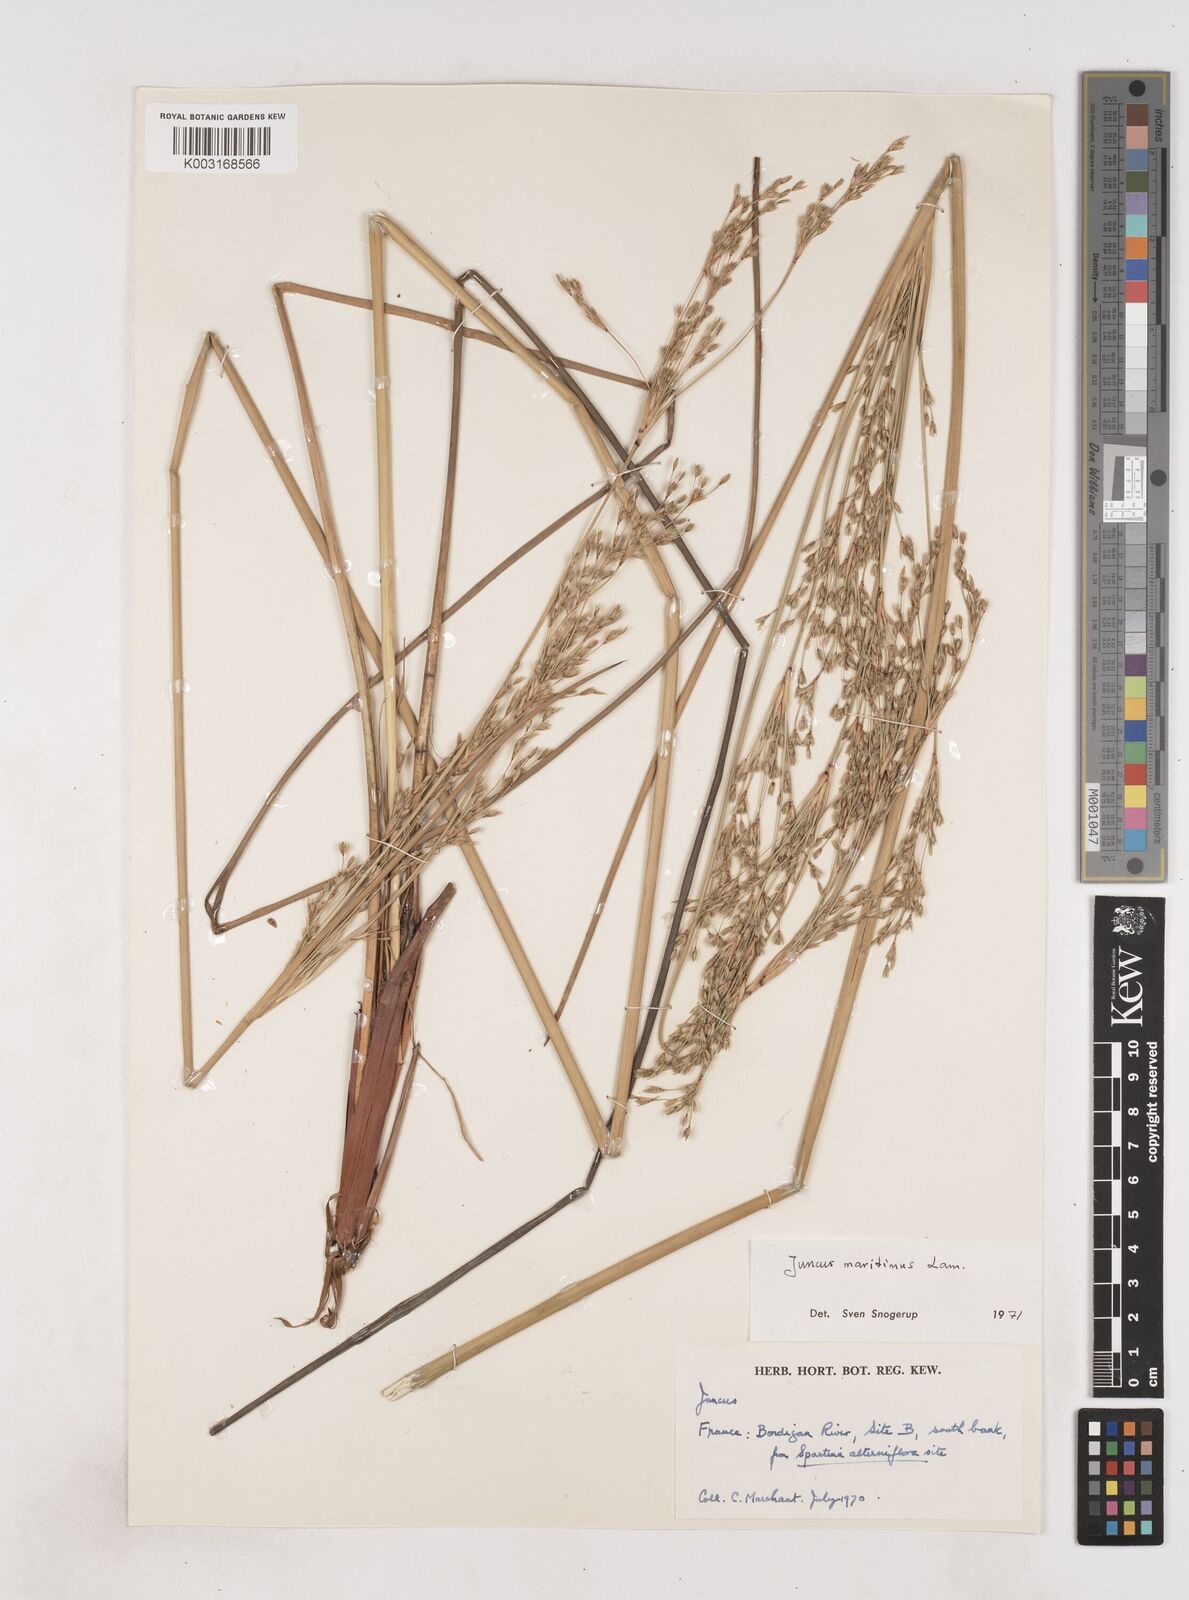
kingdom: Plantae
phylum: Tracheophyta
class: Liliopsida
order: Poales
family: Juncaceae
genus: Juncus
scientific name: Juncus maritimus
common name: Sea rush
